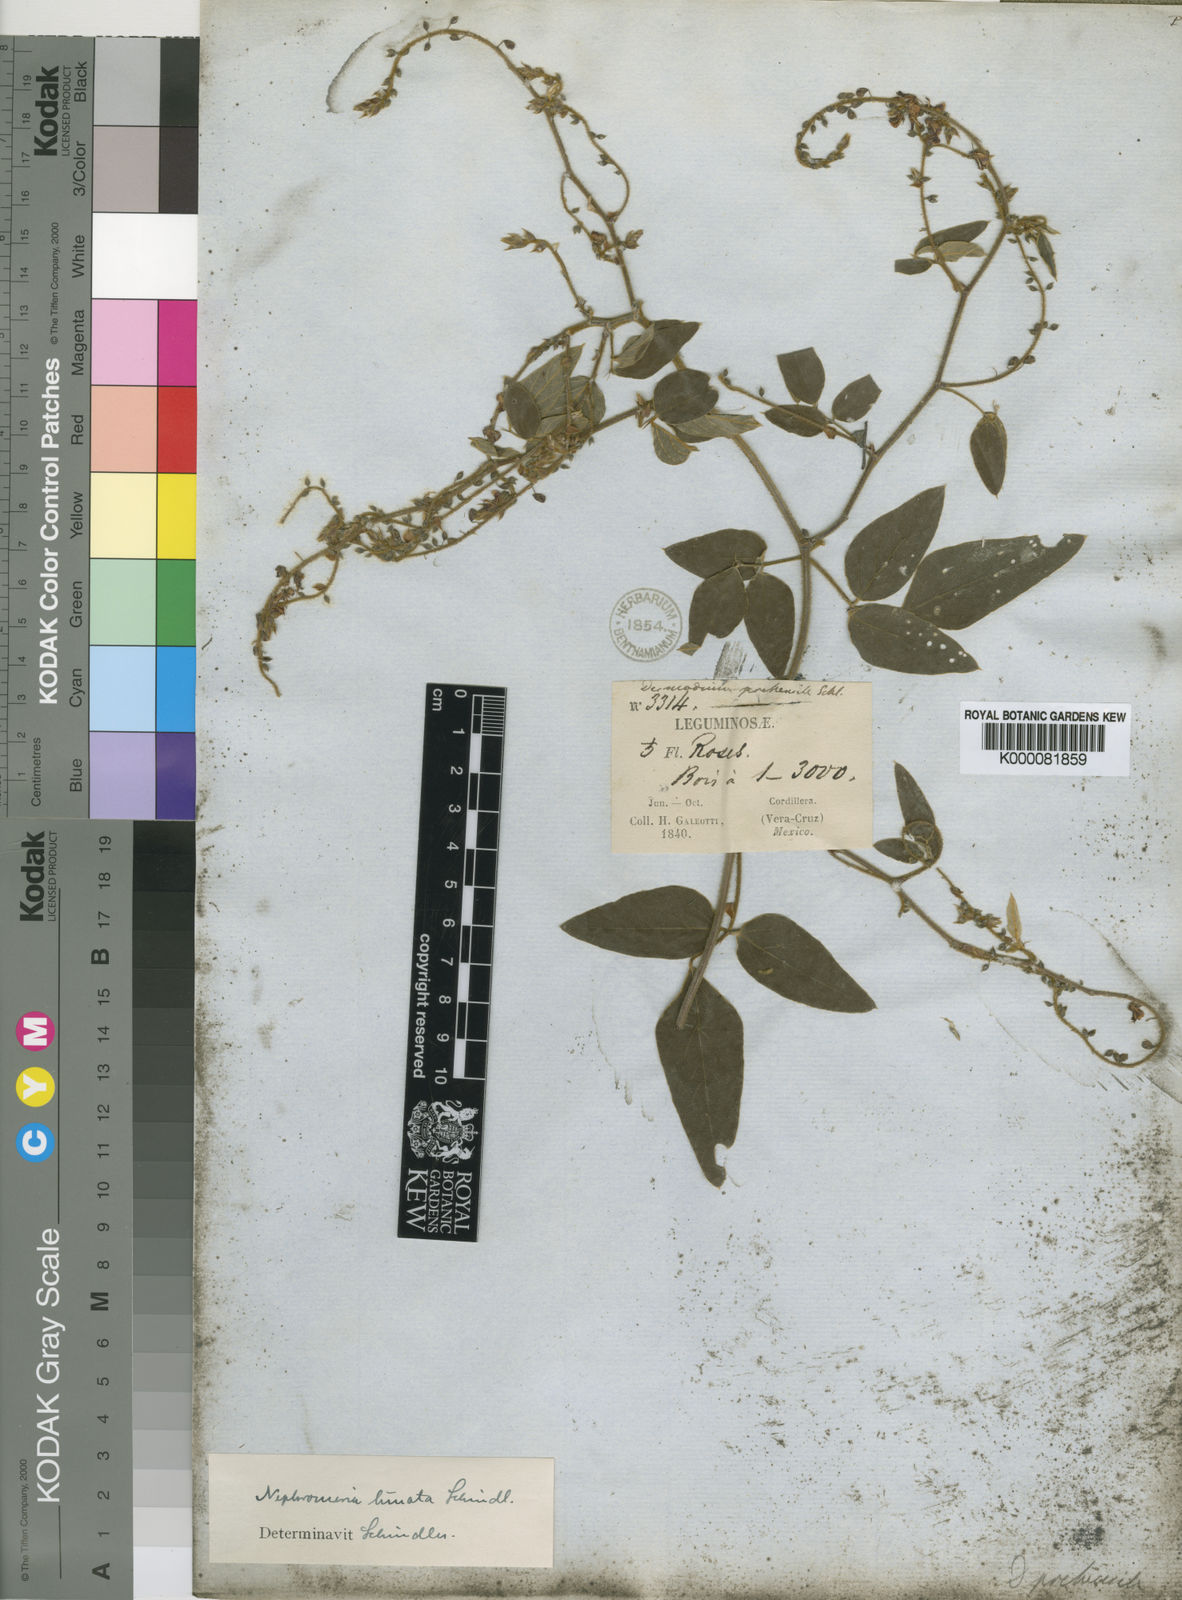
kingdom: Plantae
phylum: Tracheophyta
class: Magnoliopsida
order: Fabales
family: Fabaceae
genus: Desmodium
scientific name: Desmodium prehensile
